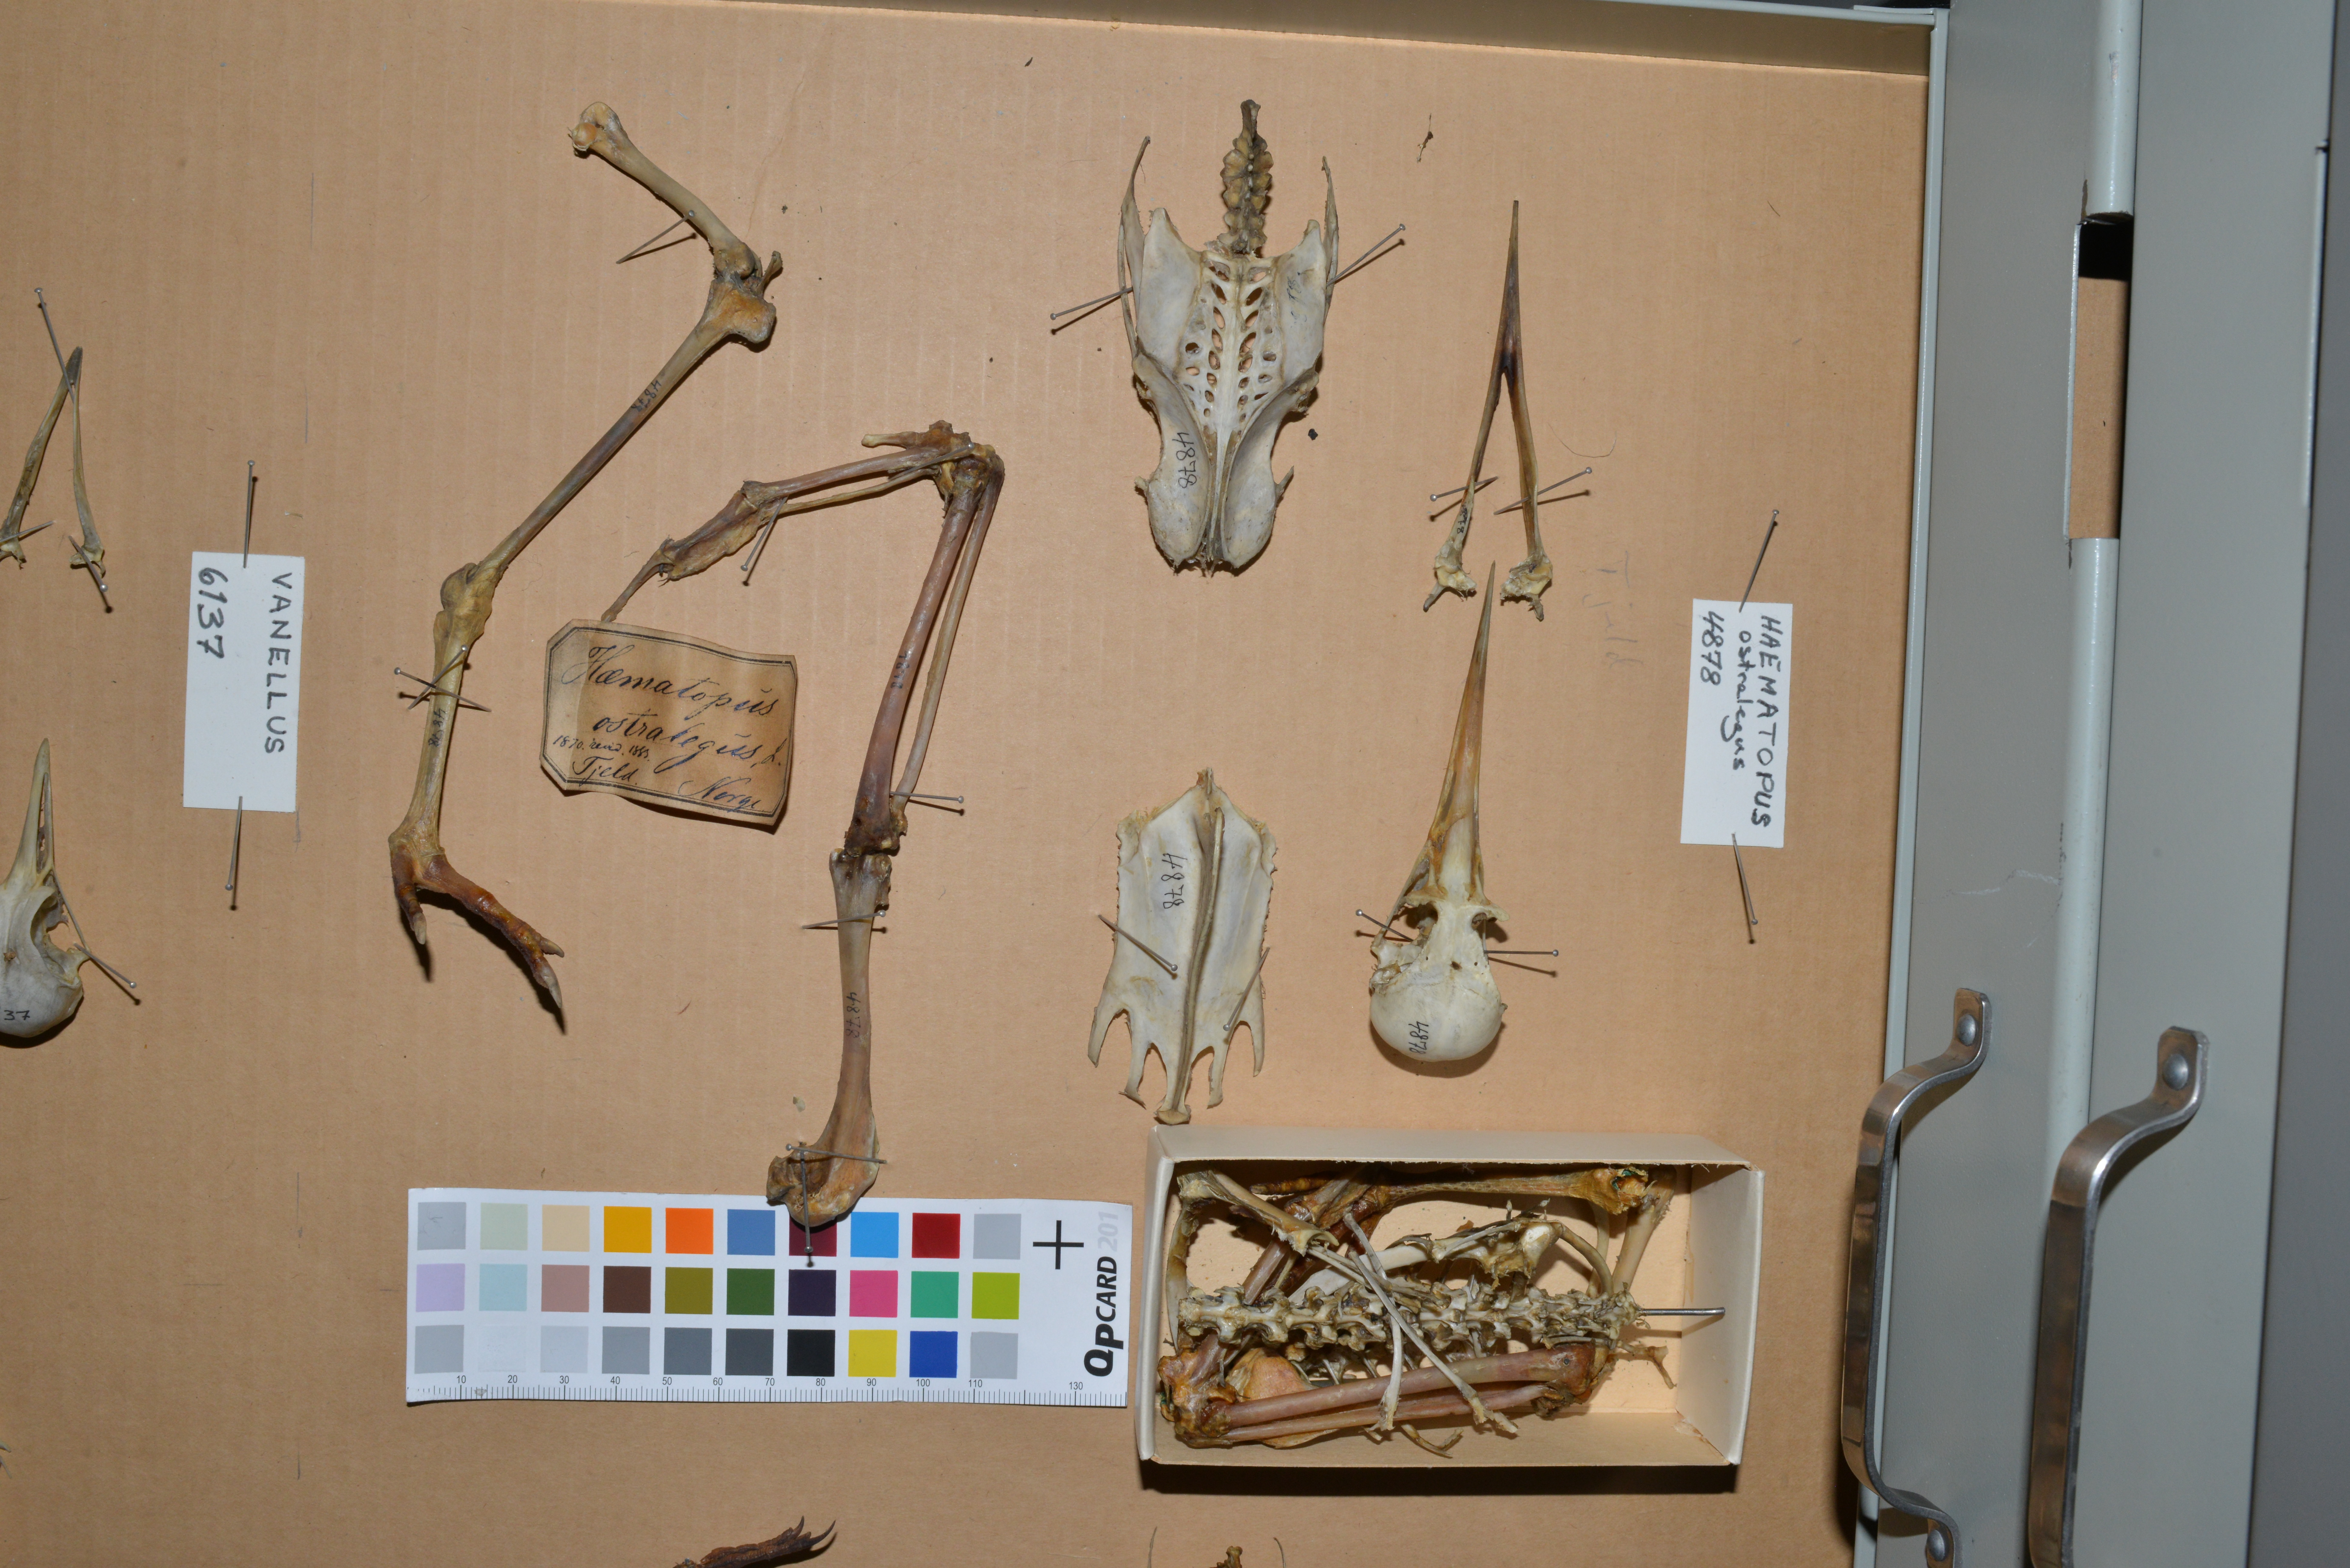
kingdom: Animalia
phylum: Chordata
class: Aves
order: Charadriiformes
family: Haematopodidae
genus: Haematopus
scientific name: Haematopus ostralegus
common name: Eurasian oystercatcher
